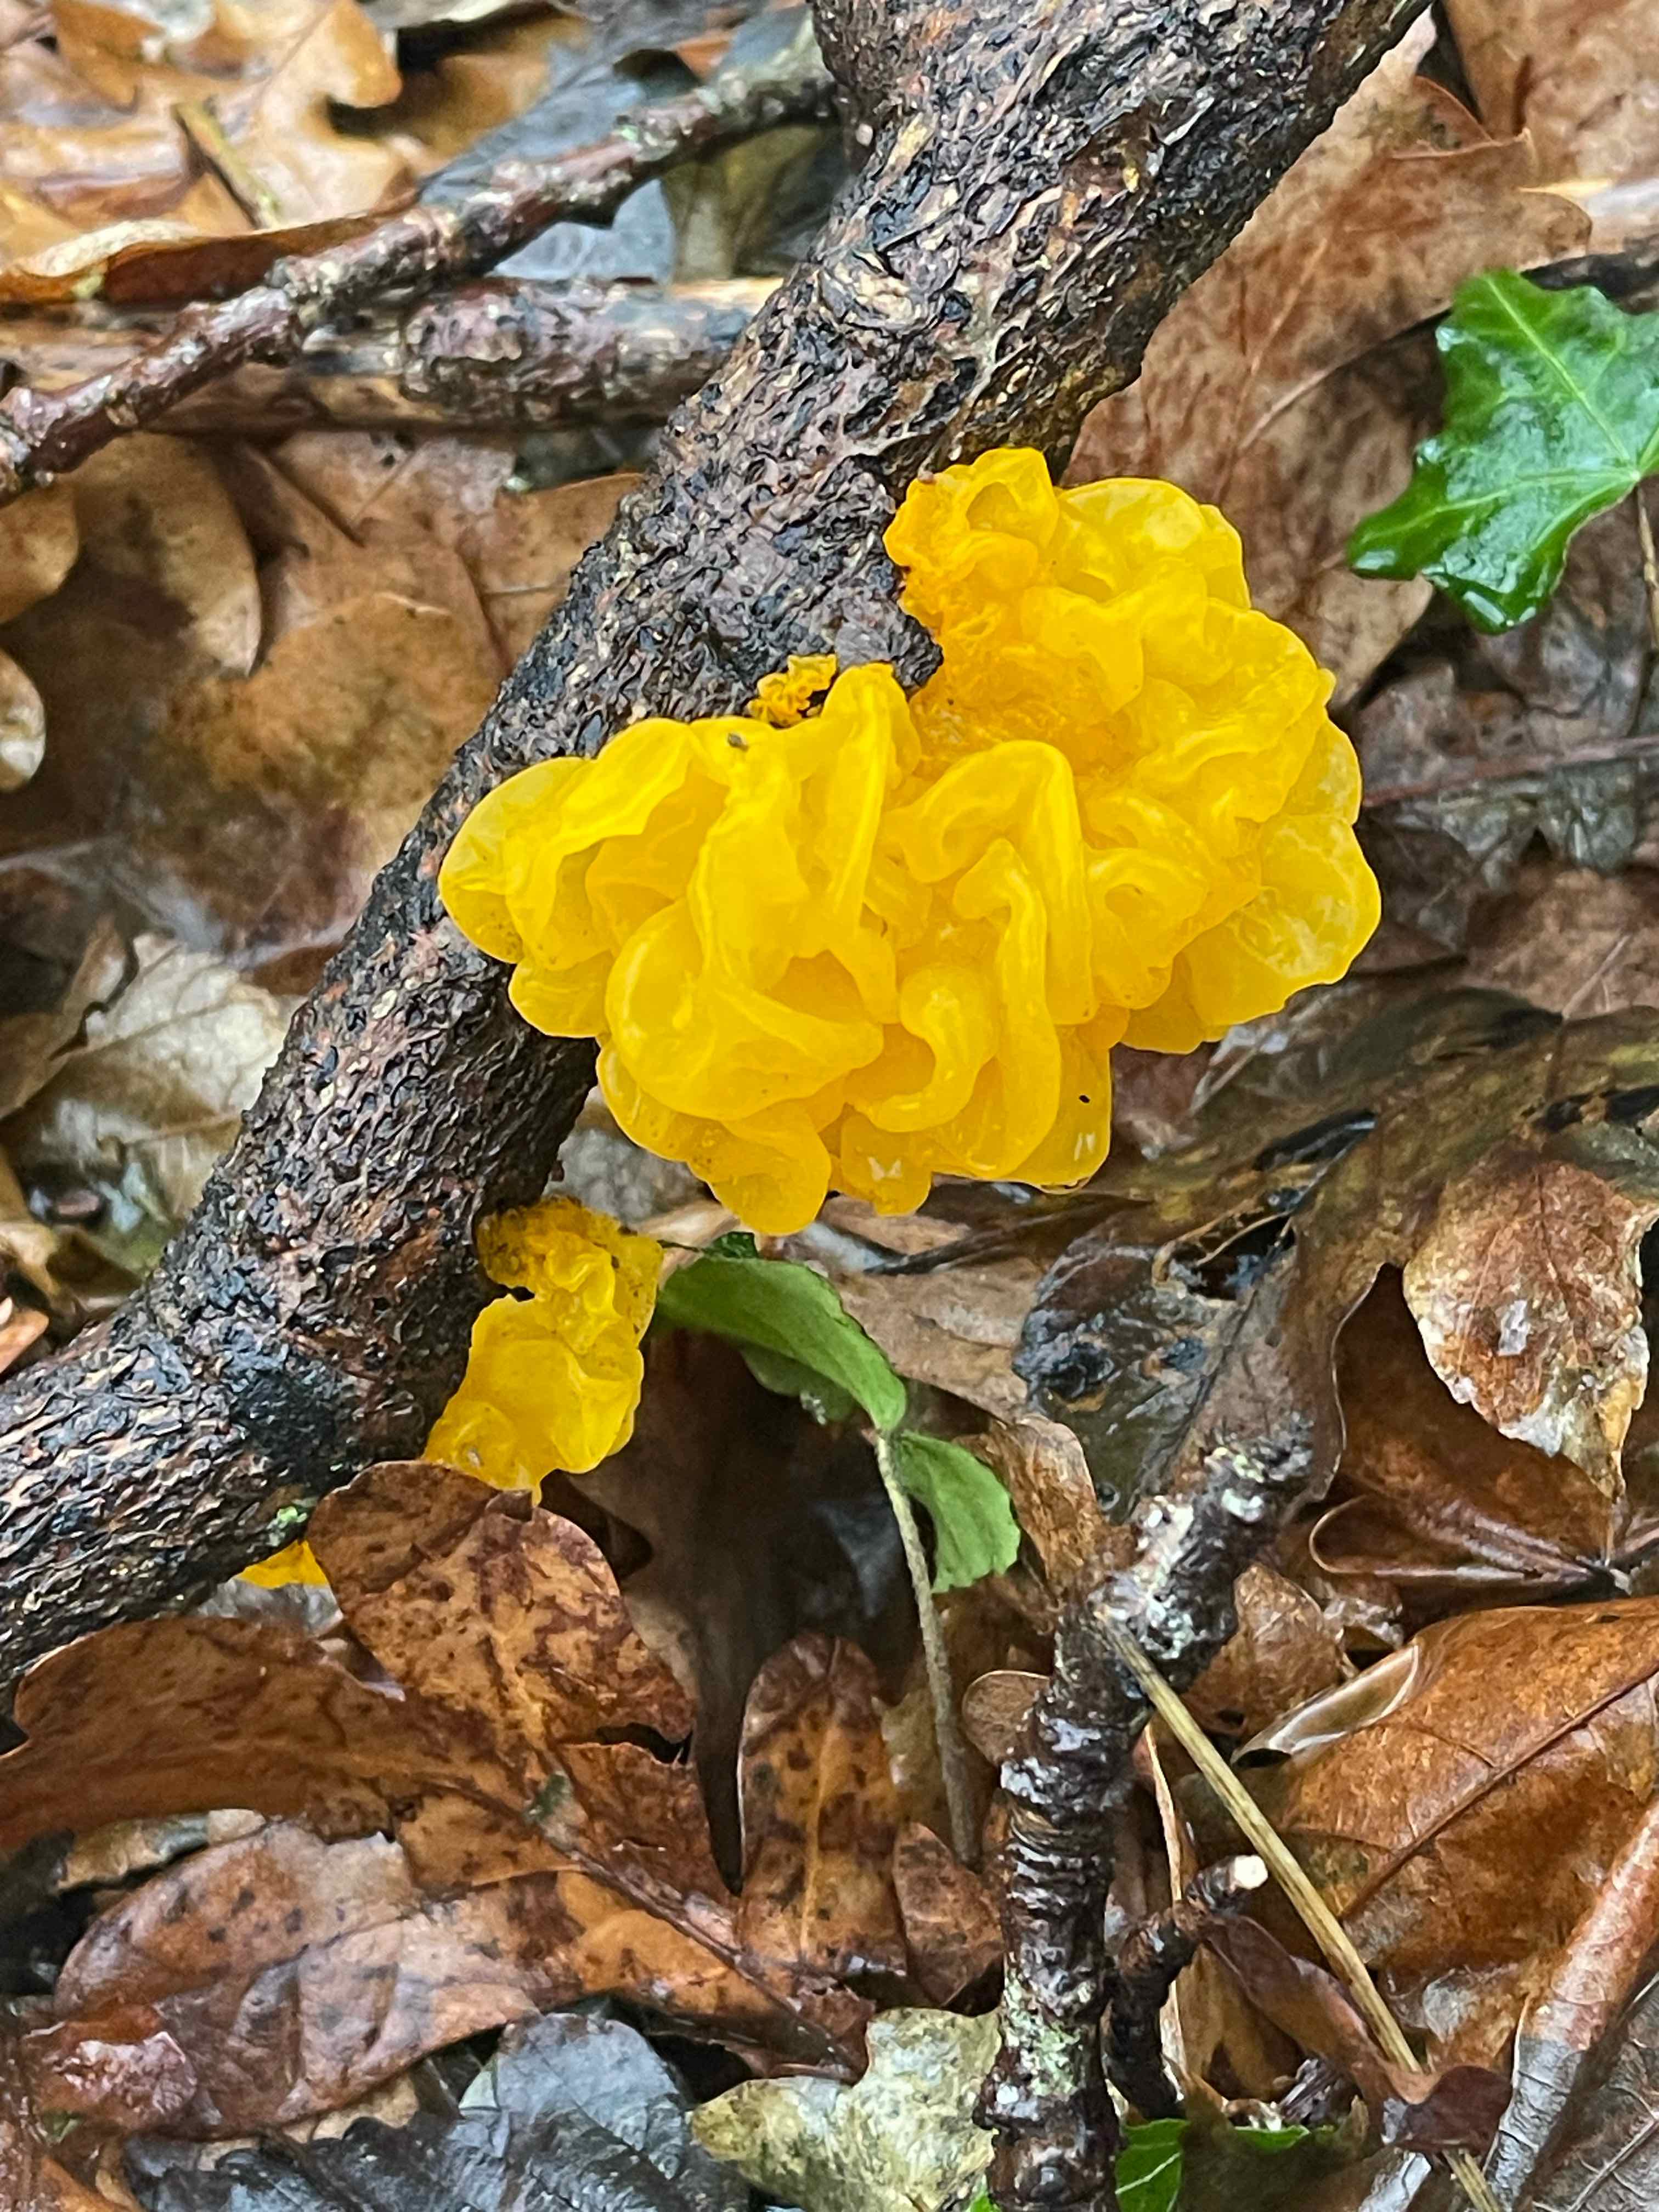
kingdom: Fungi
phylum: Basidiomycota
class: Tremellomycetes
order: Tremellales
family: Tremellaceae
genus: Tremella
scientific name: Tremella mesenterica
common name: gul bævresvamp
